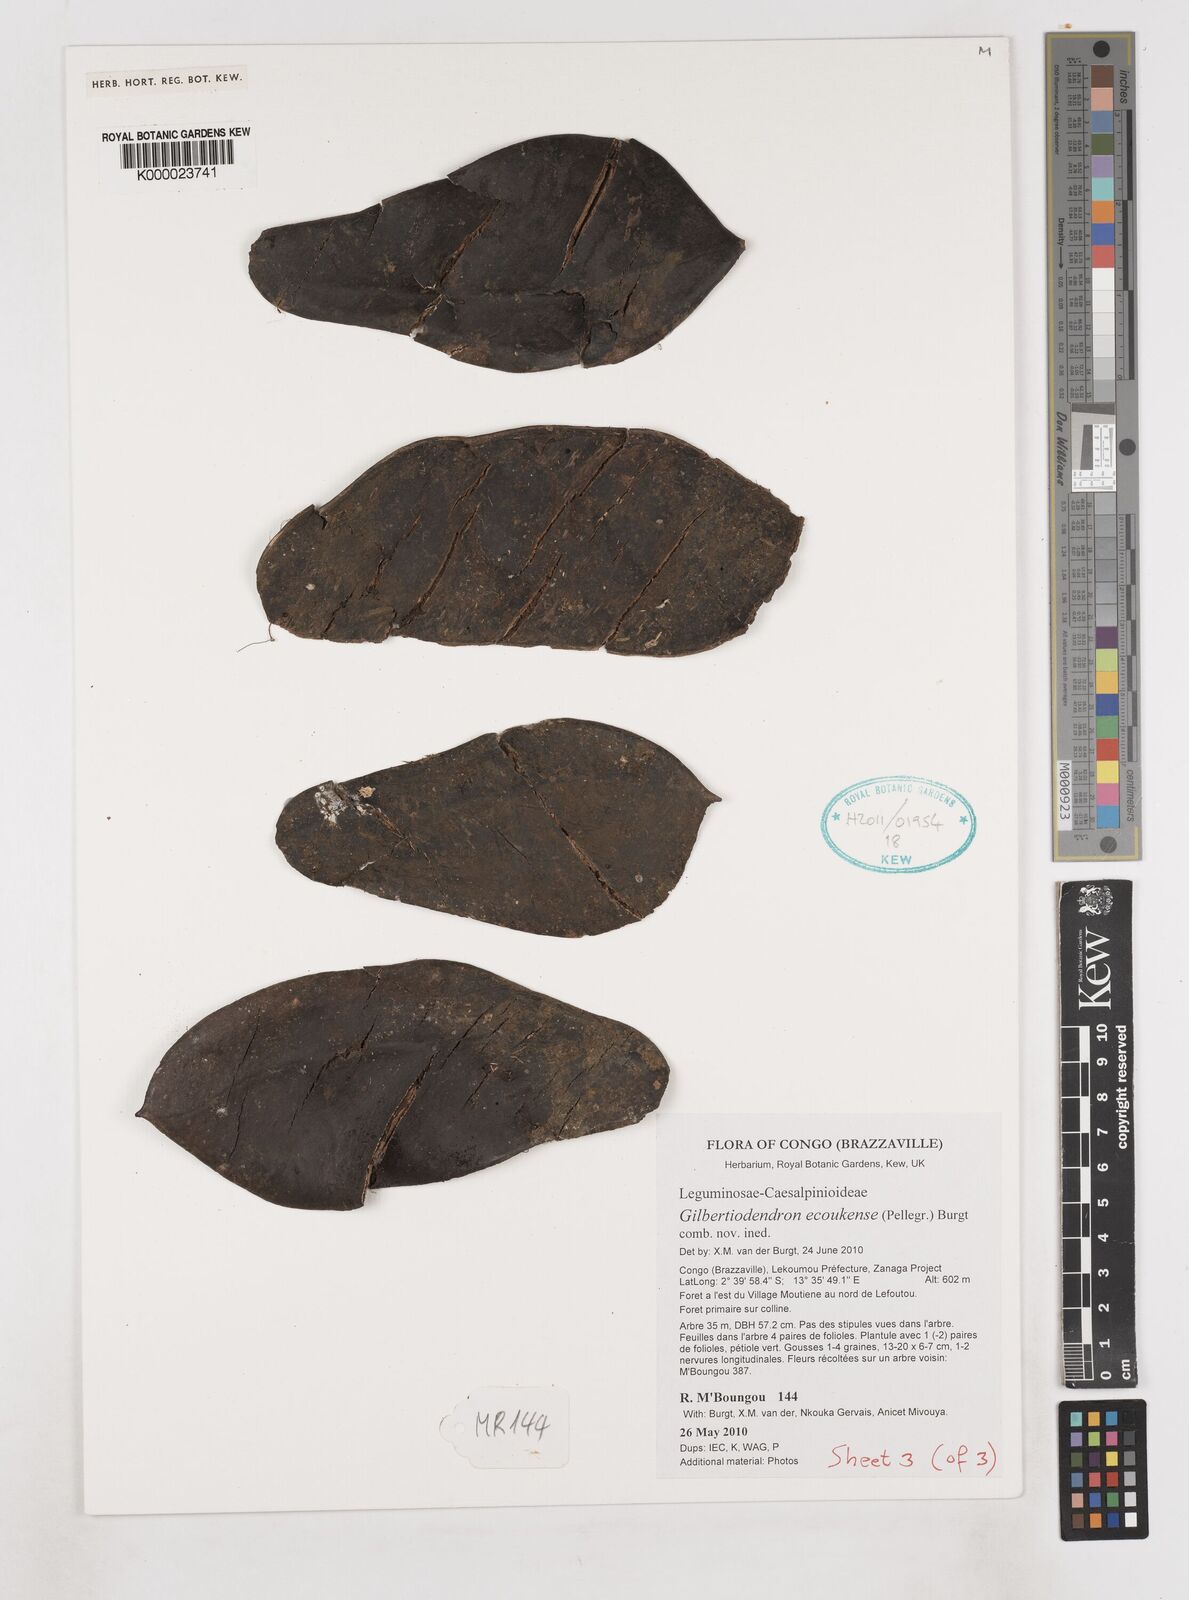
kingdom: Plantae
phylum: Tracheophyta
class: Magnoliopsida
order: Fabales
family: Fabaceae
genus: Gilbertiodendron
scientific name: Gilbertiodendron ecoukense
